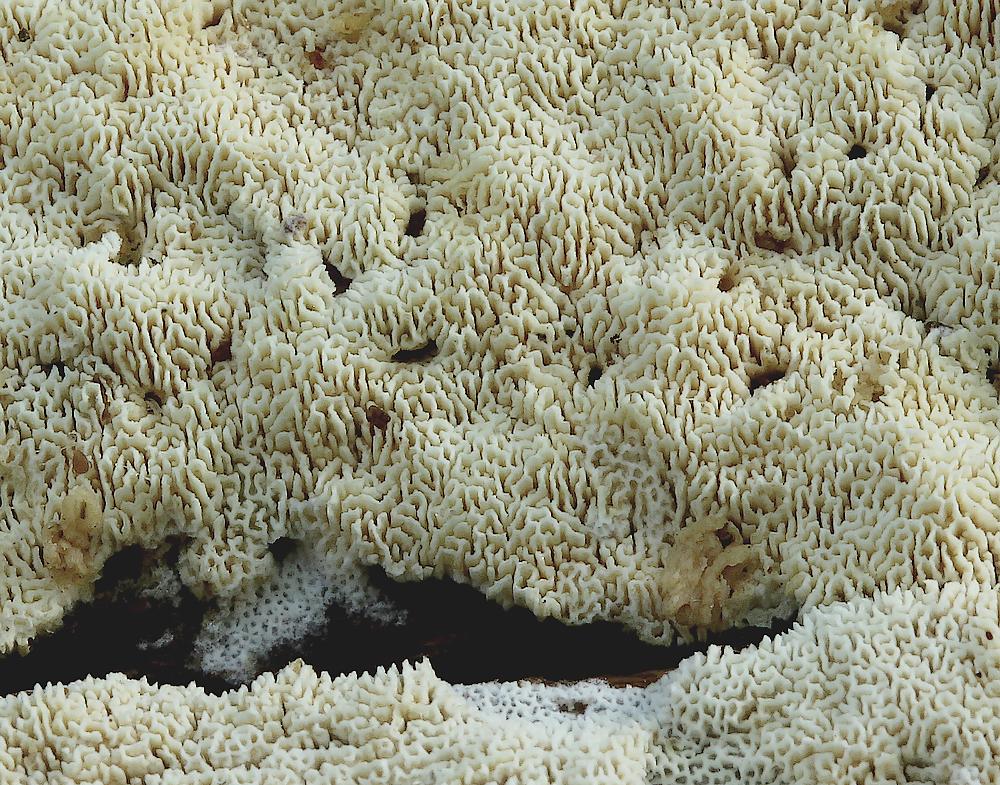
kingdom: Fungi
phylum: Basidiomycota
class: Agaricomycetes
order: Hymenochaetales
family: Schizoporaceae
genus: Xylodon
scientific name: Xylodon subtropicus
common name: labyrint-tandsvamp
